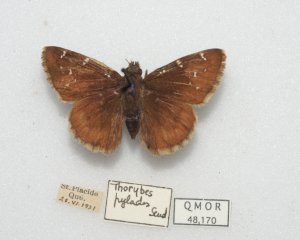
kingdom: Animalia
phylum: Arthropoda
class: Insecta
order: Lepidoptera
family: Hesperiidae
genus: Autochton
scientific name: Autochton
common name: Northern Cloudywing
